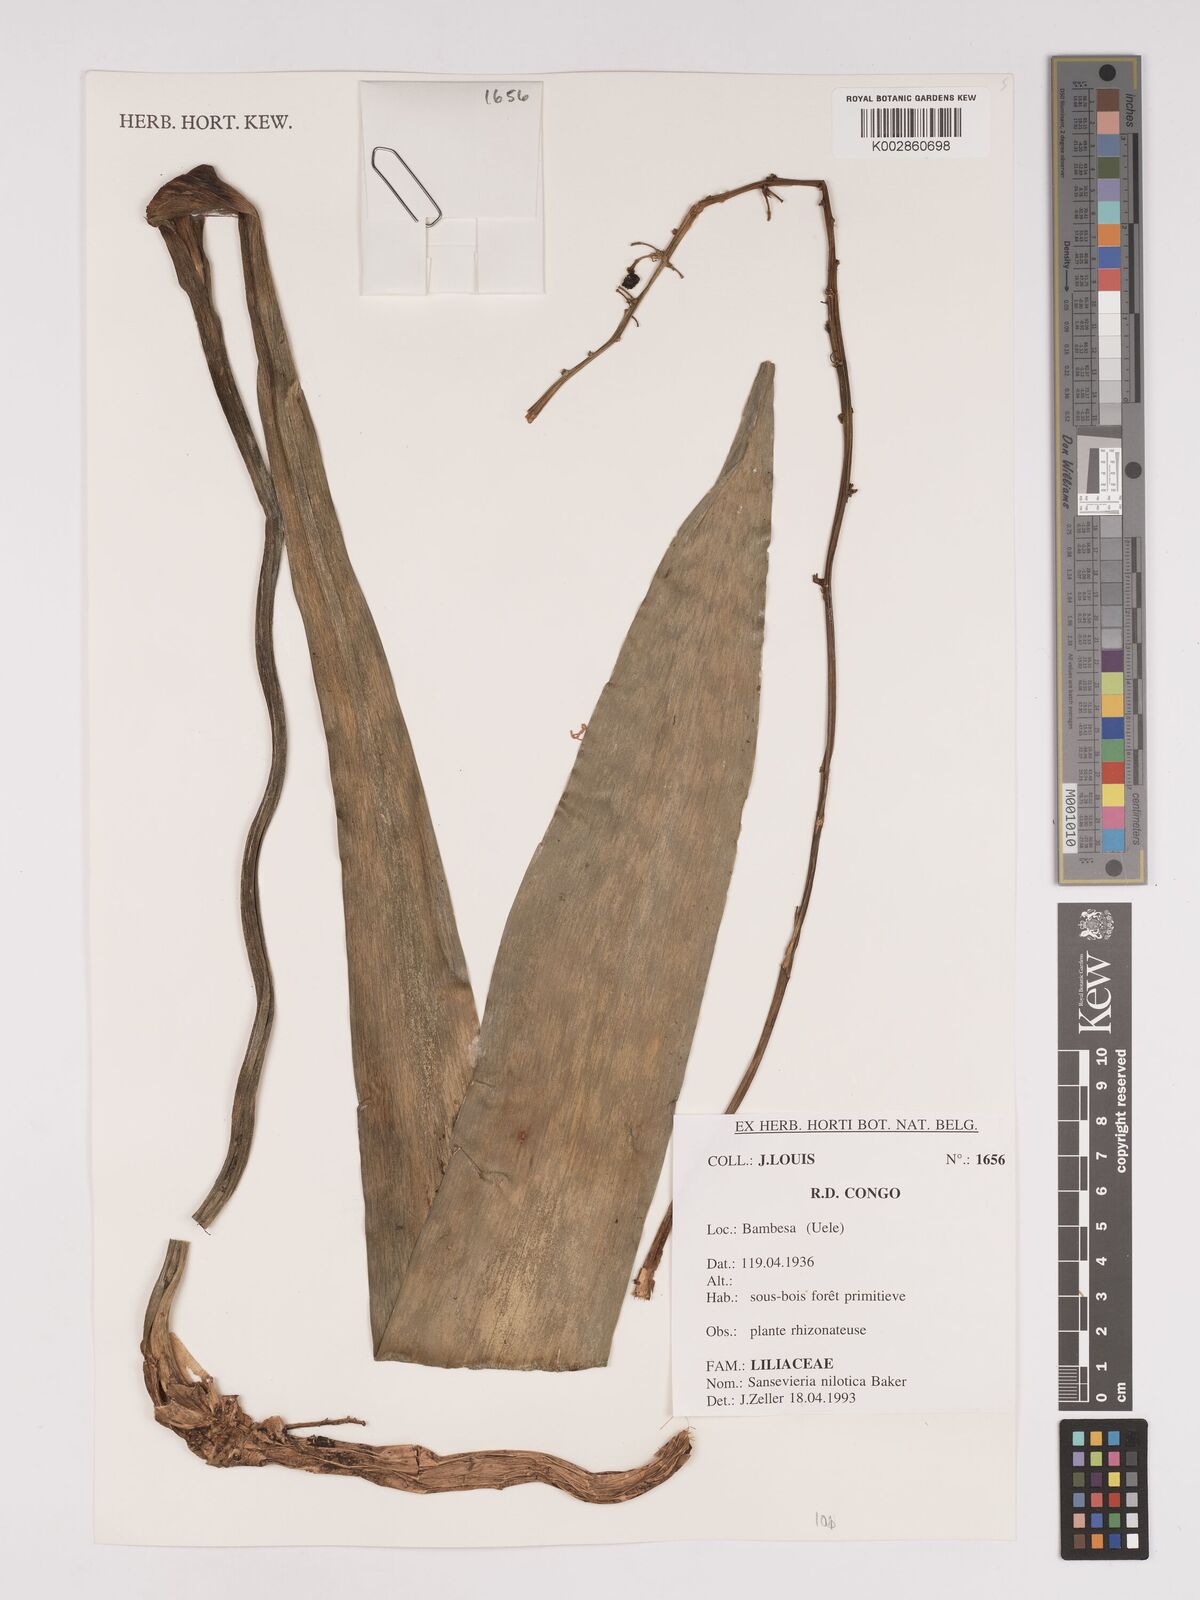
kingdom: Plantae
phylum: Tracheophyta
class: Liliopsida
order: Asparagales
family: Asparagaceae
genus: Dracaena
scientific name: Dracaena nilotica
